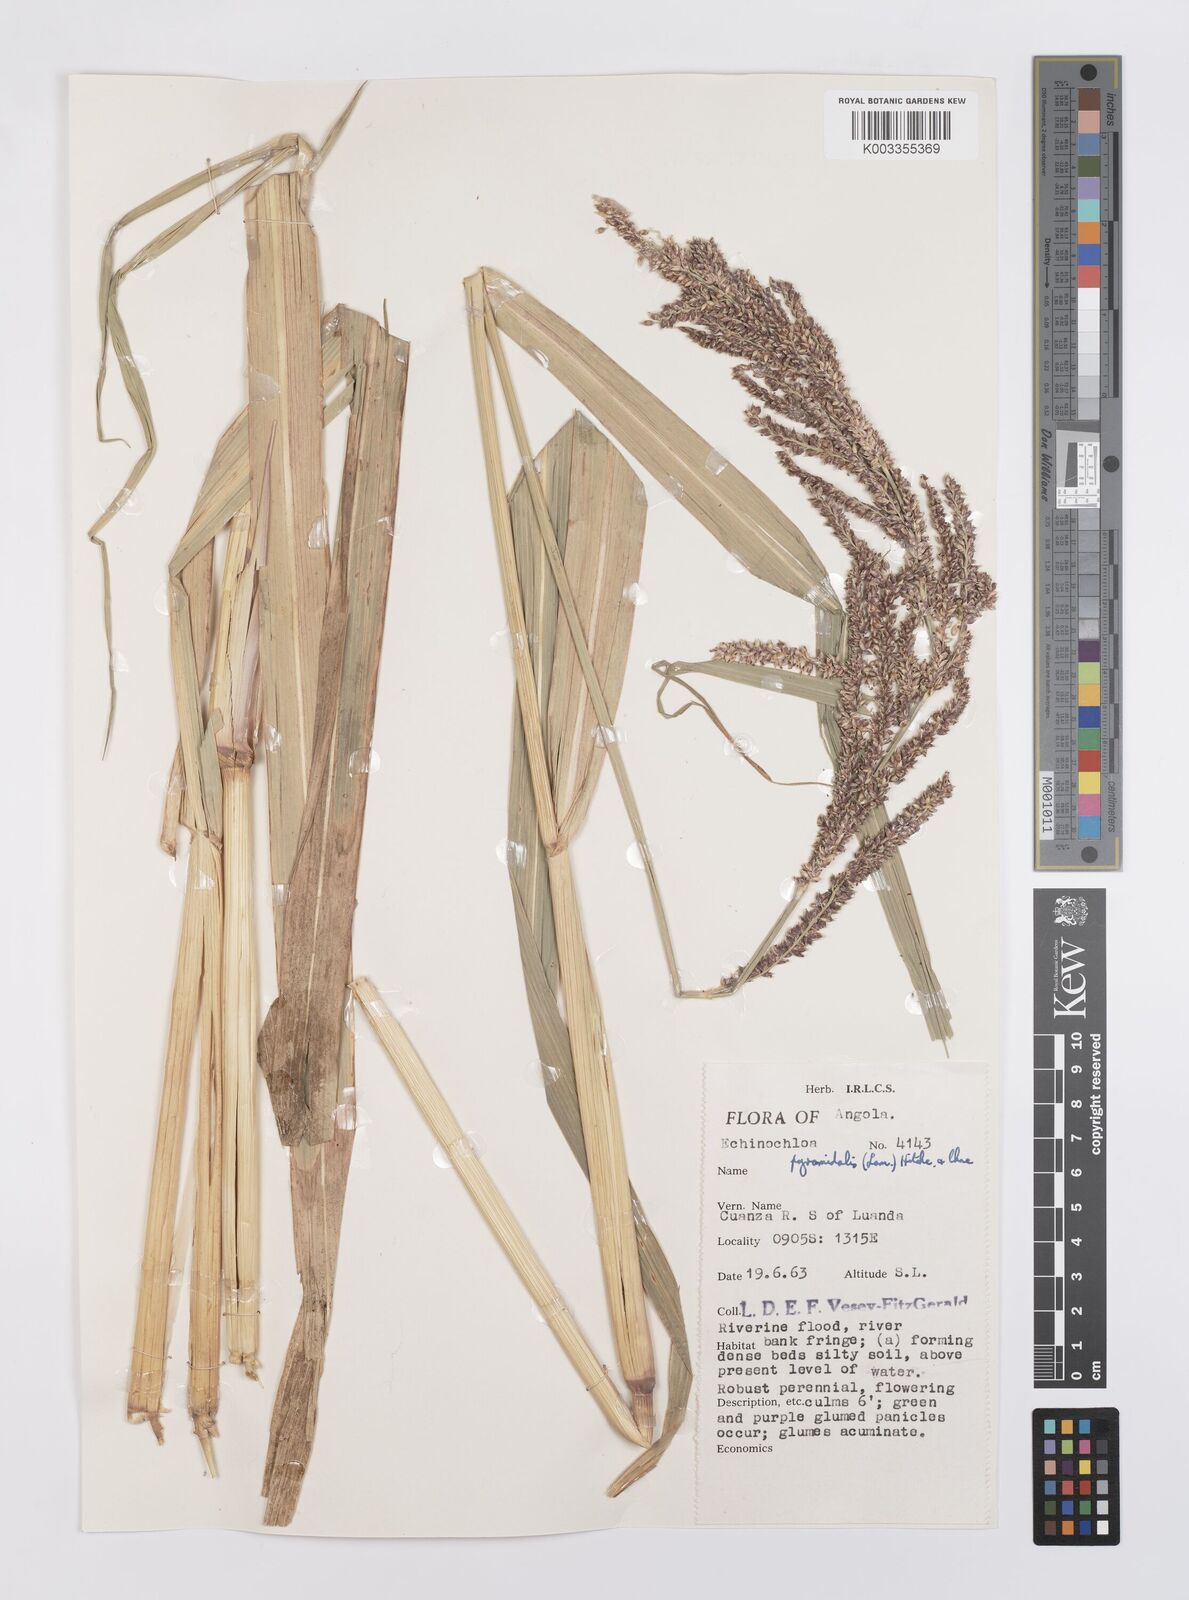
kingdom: Plantae
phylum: Tracheophyta
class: Liliopsida
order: Poales
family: Poaceae
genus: Echinochloa
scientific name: Echinochloa pyramidalis
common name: Antelope grass
